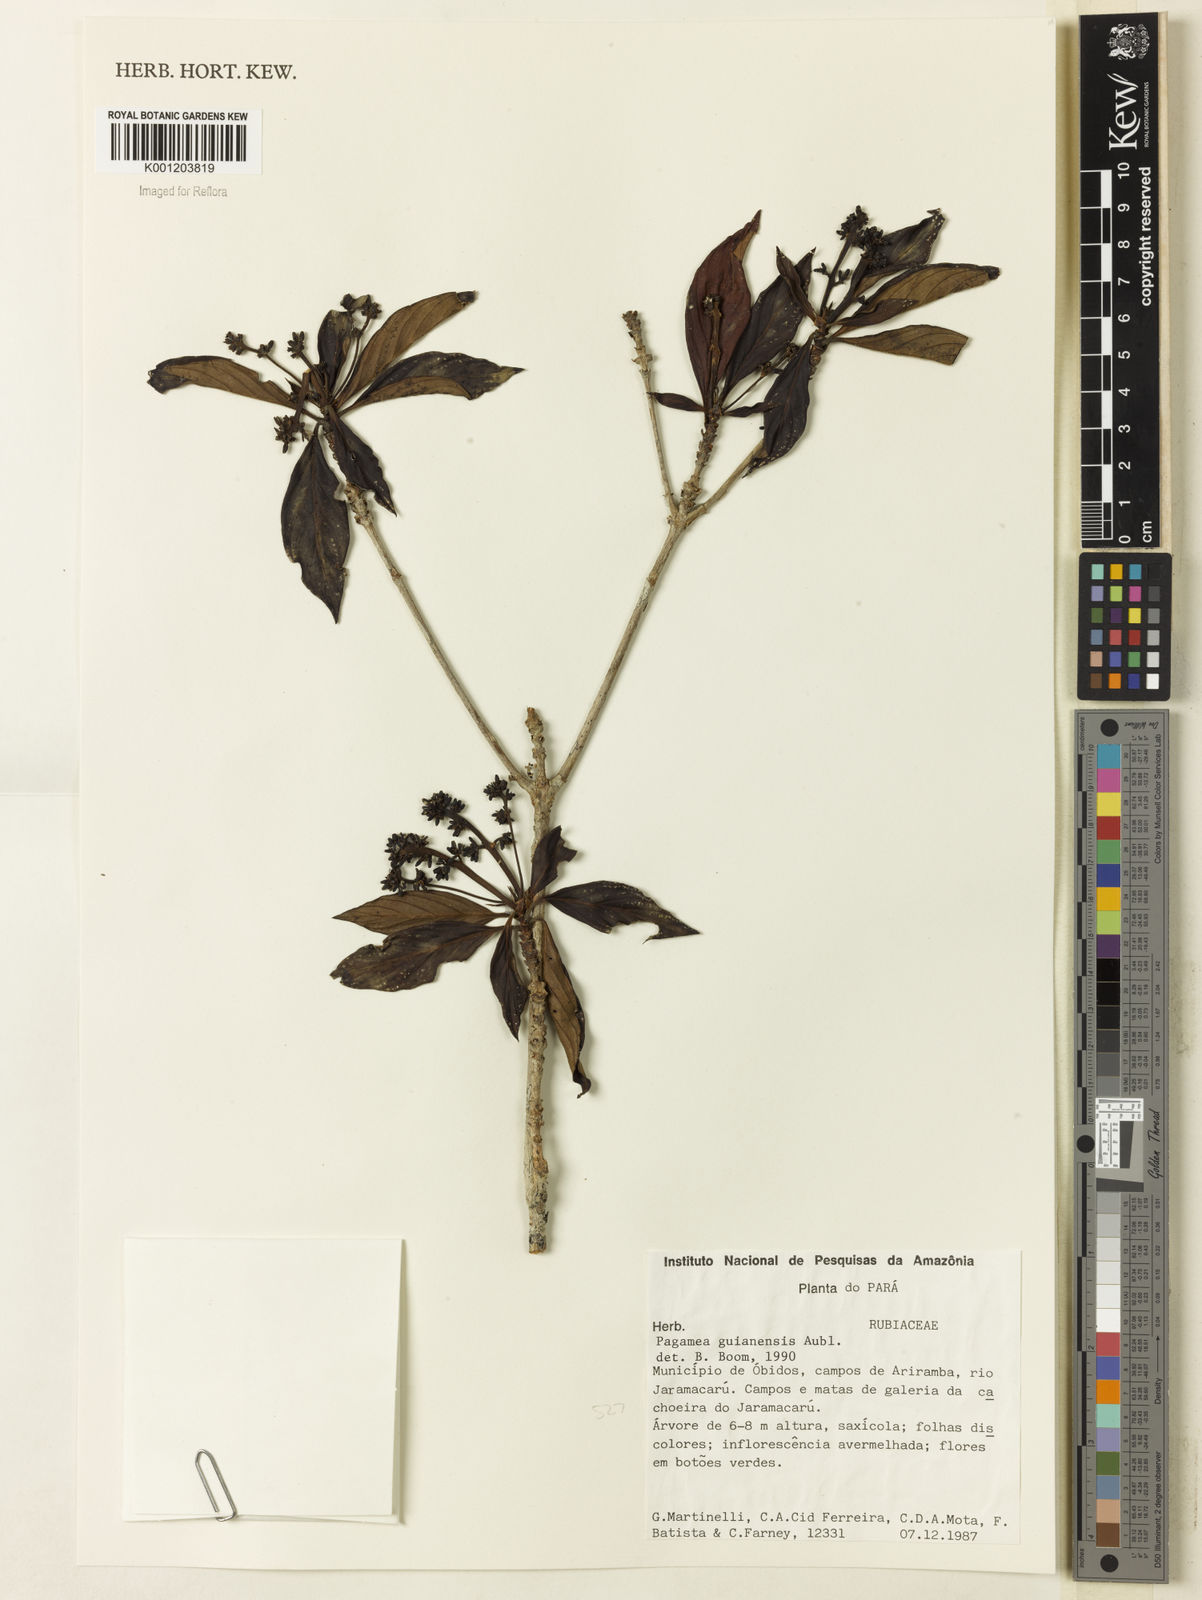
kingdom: Plantae
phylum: Tracheophyta
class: Magnoliopsida
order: Gentianales
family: Rubiaceae
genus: Pagamea
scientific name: Pagamea guianensis
